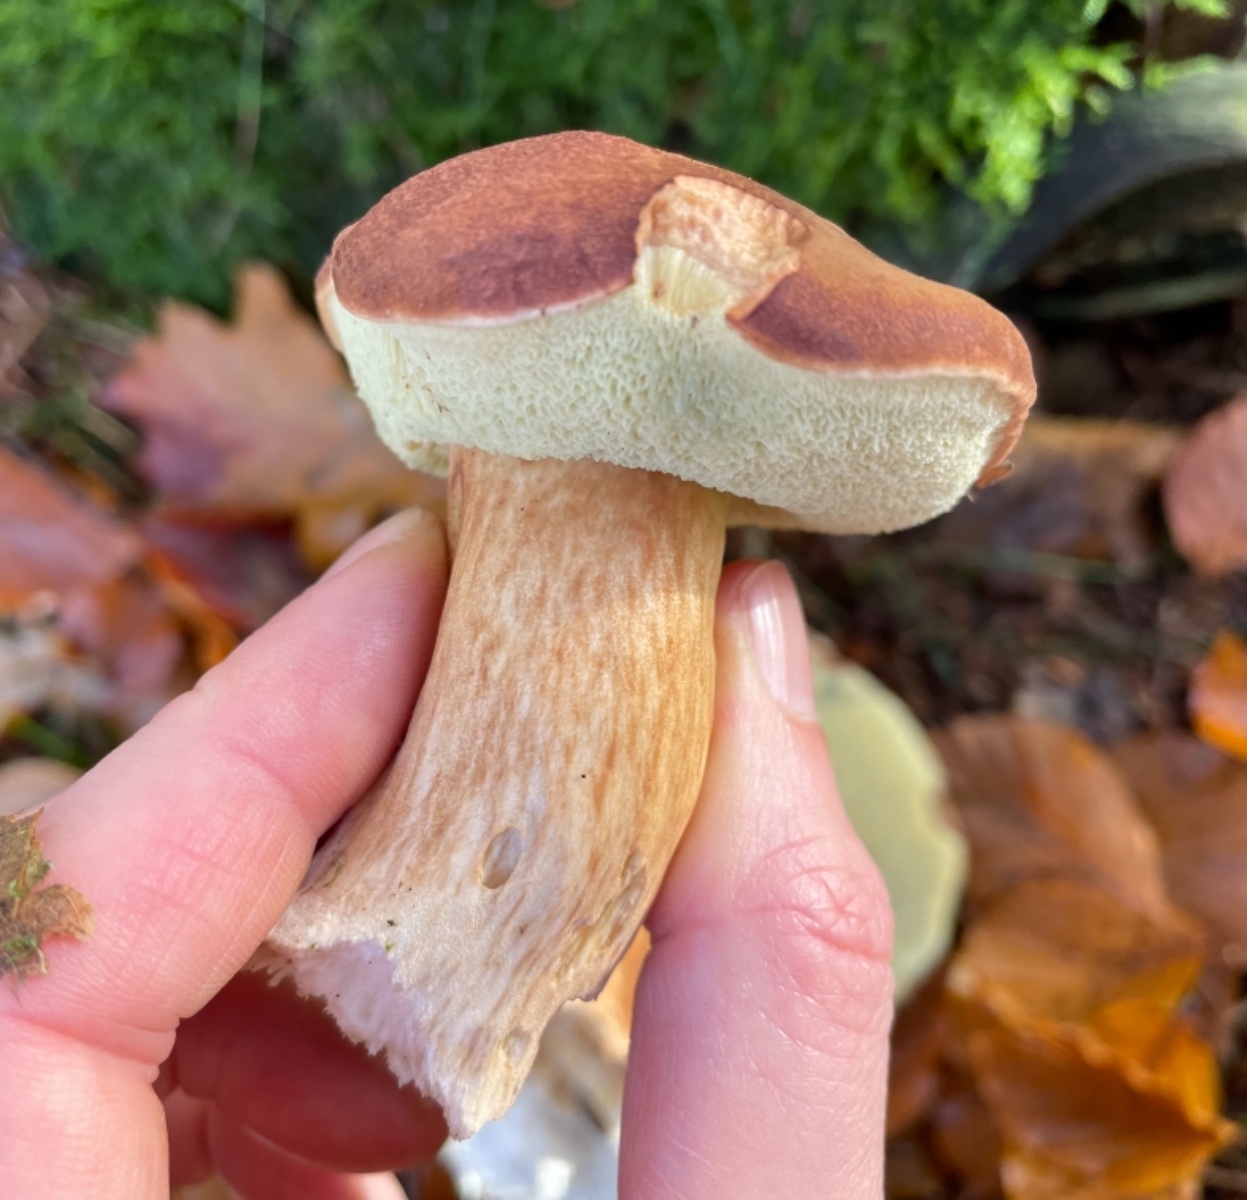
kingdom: Fungi
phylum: Basidiomycota
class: Agaricomycetes
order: Boletales
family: Boletaceae
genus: Imleria
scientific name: Imleria badia
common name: brunstokket rørhat
